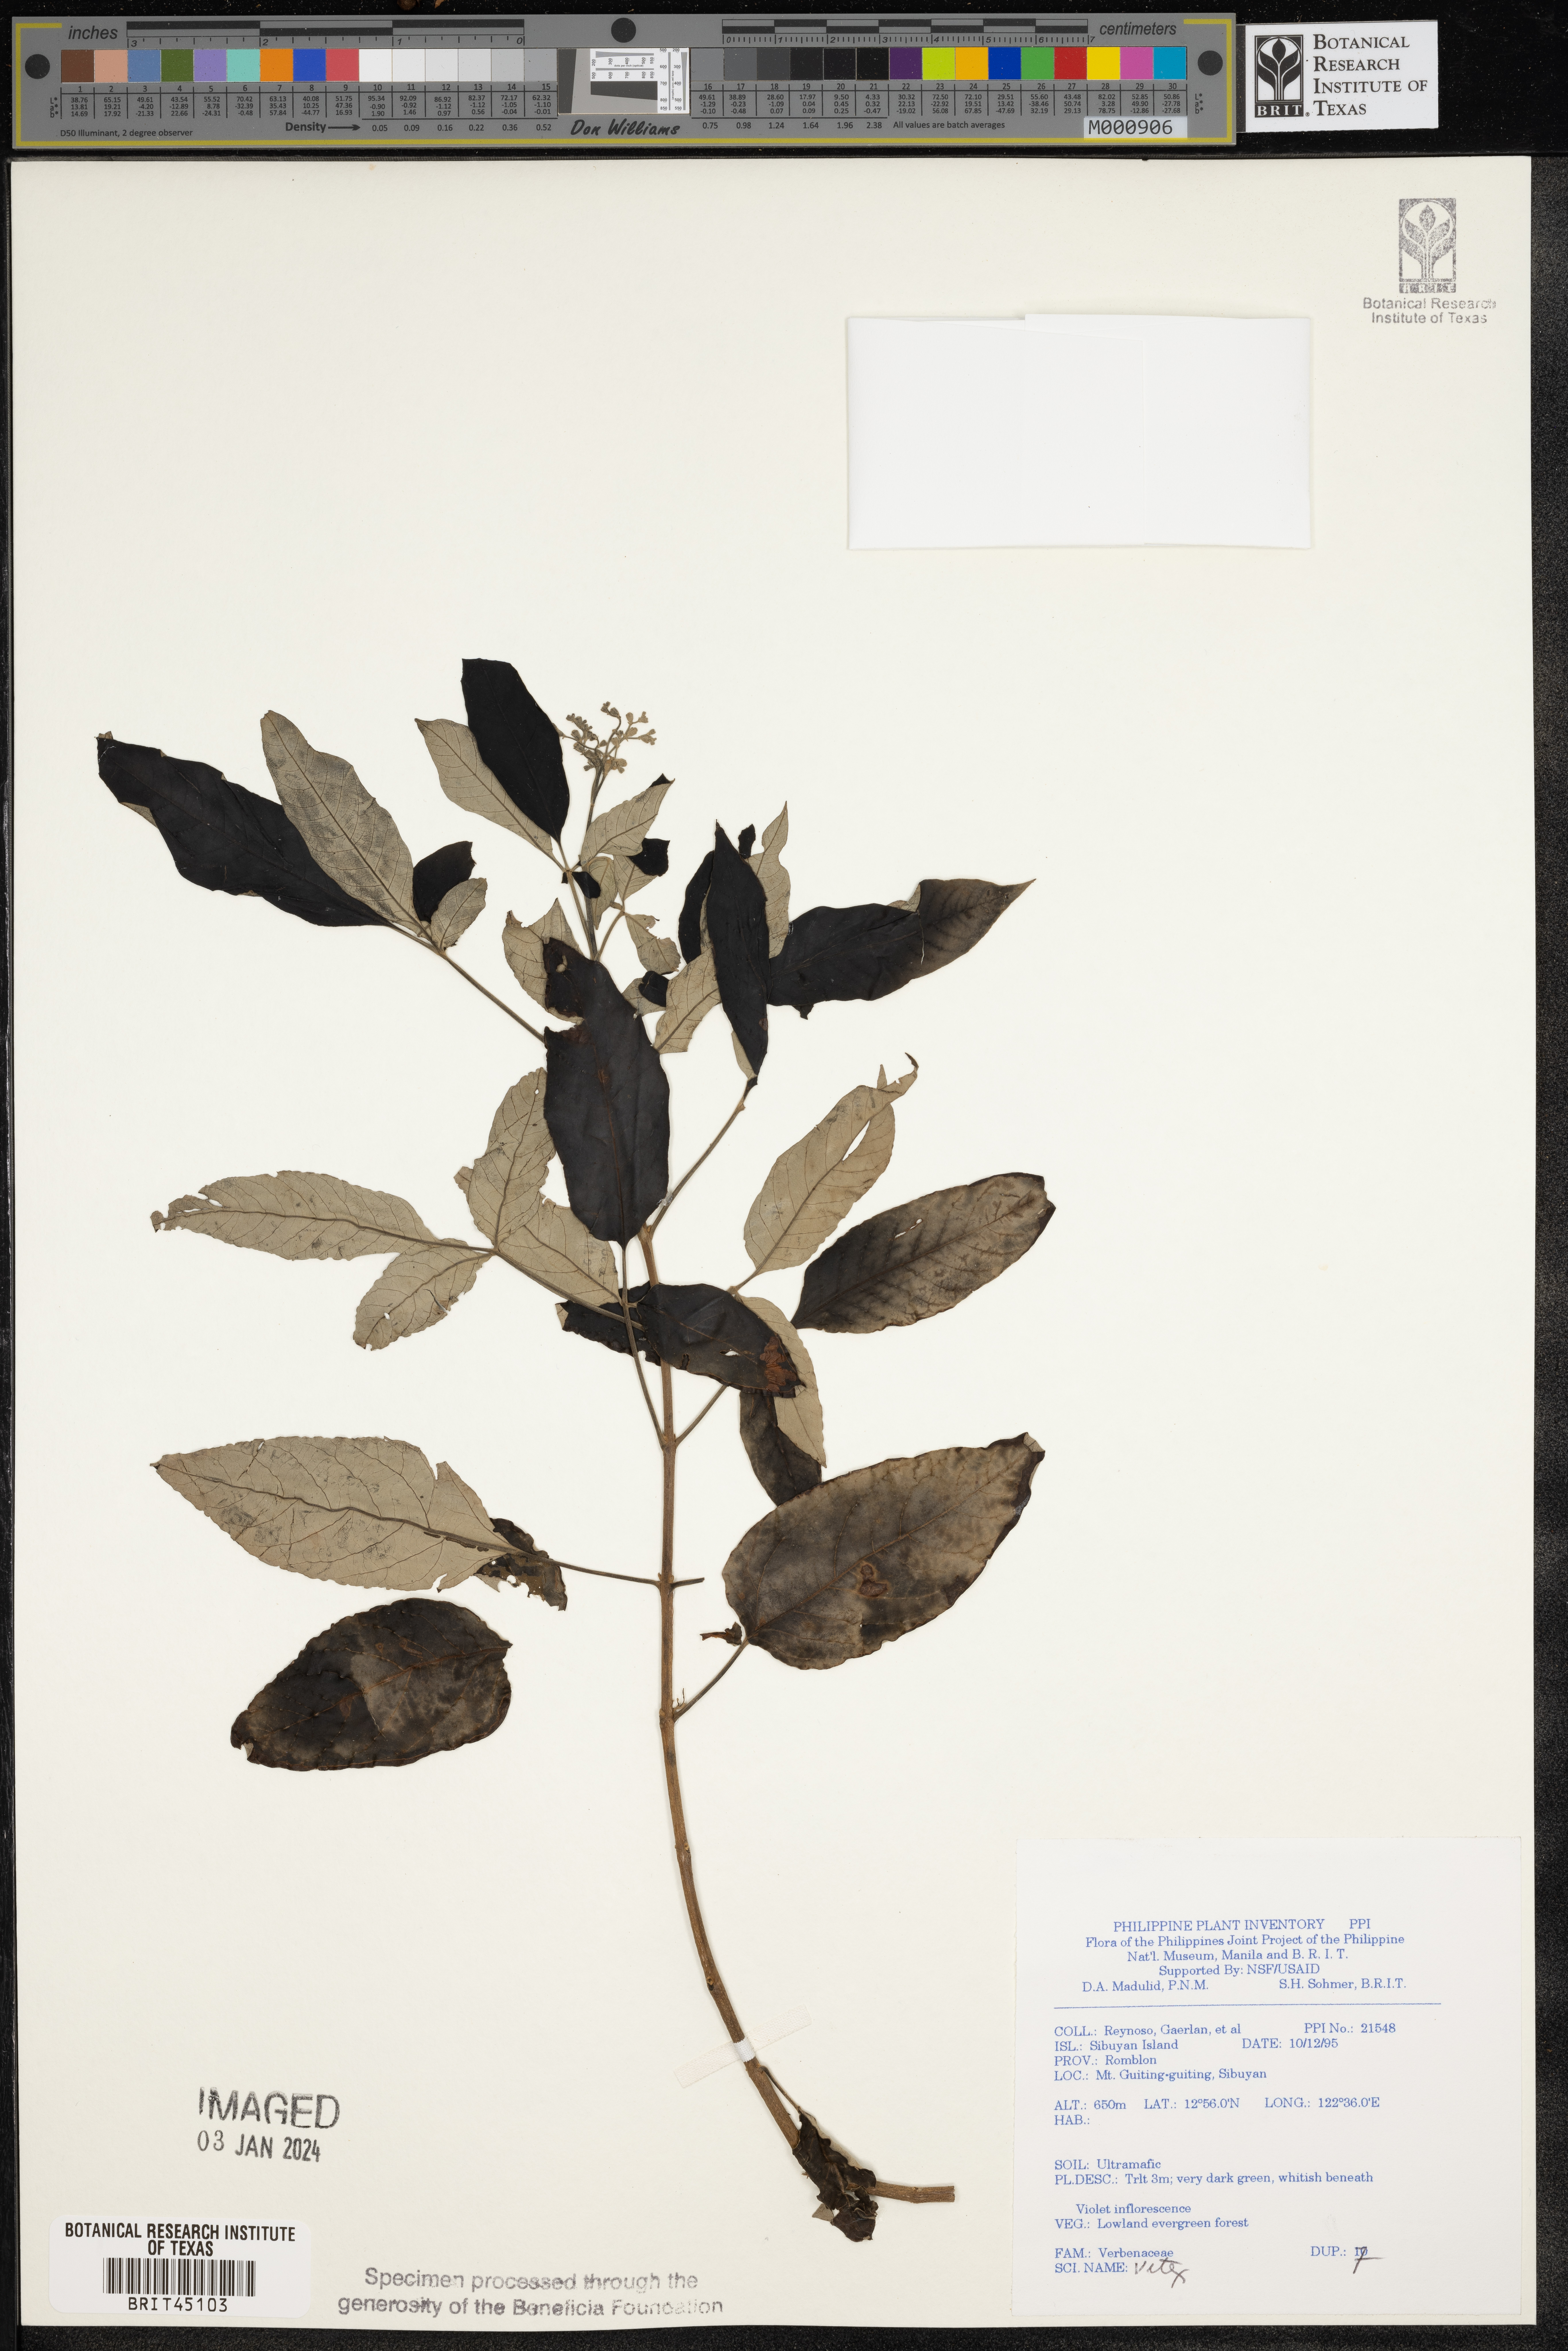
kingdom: Plantae
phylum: Tracheophyta
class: Magnoliopsida
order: Lamiales
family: Lamiaceae
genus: Vitex
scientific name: Vitex
